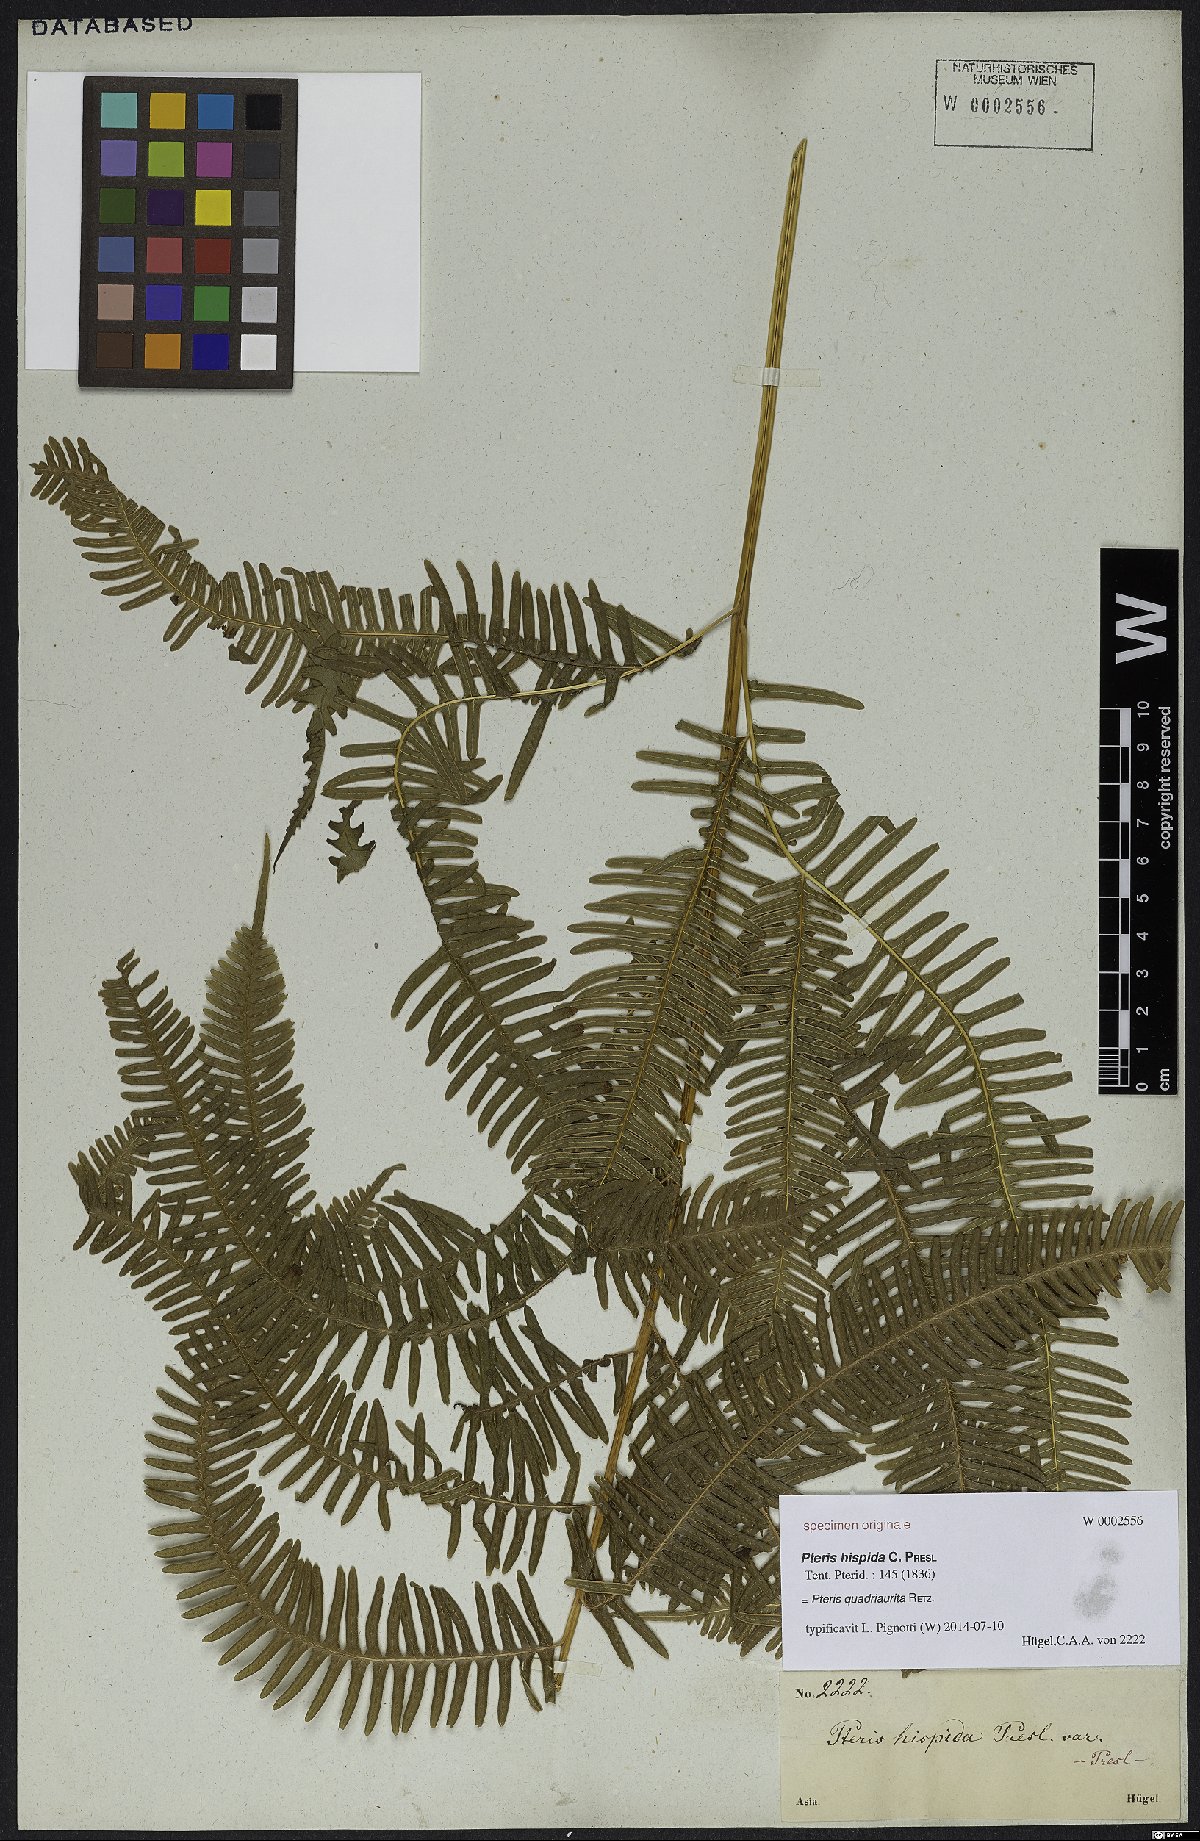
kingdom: Plantae
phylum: Tracheophyta
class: Polypodiopsida
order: Polypodiales
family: Pteridaceae
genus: Pteris
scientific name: Pteris quadriaurita
